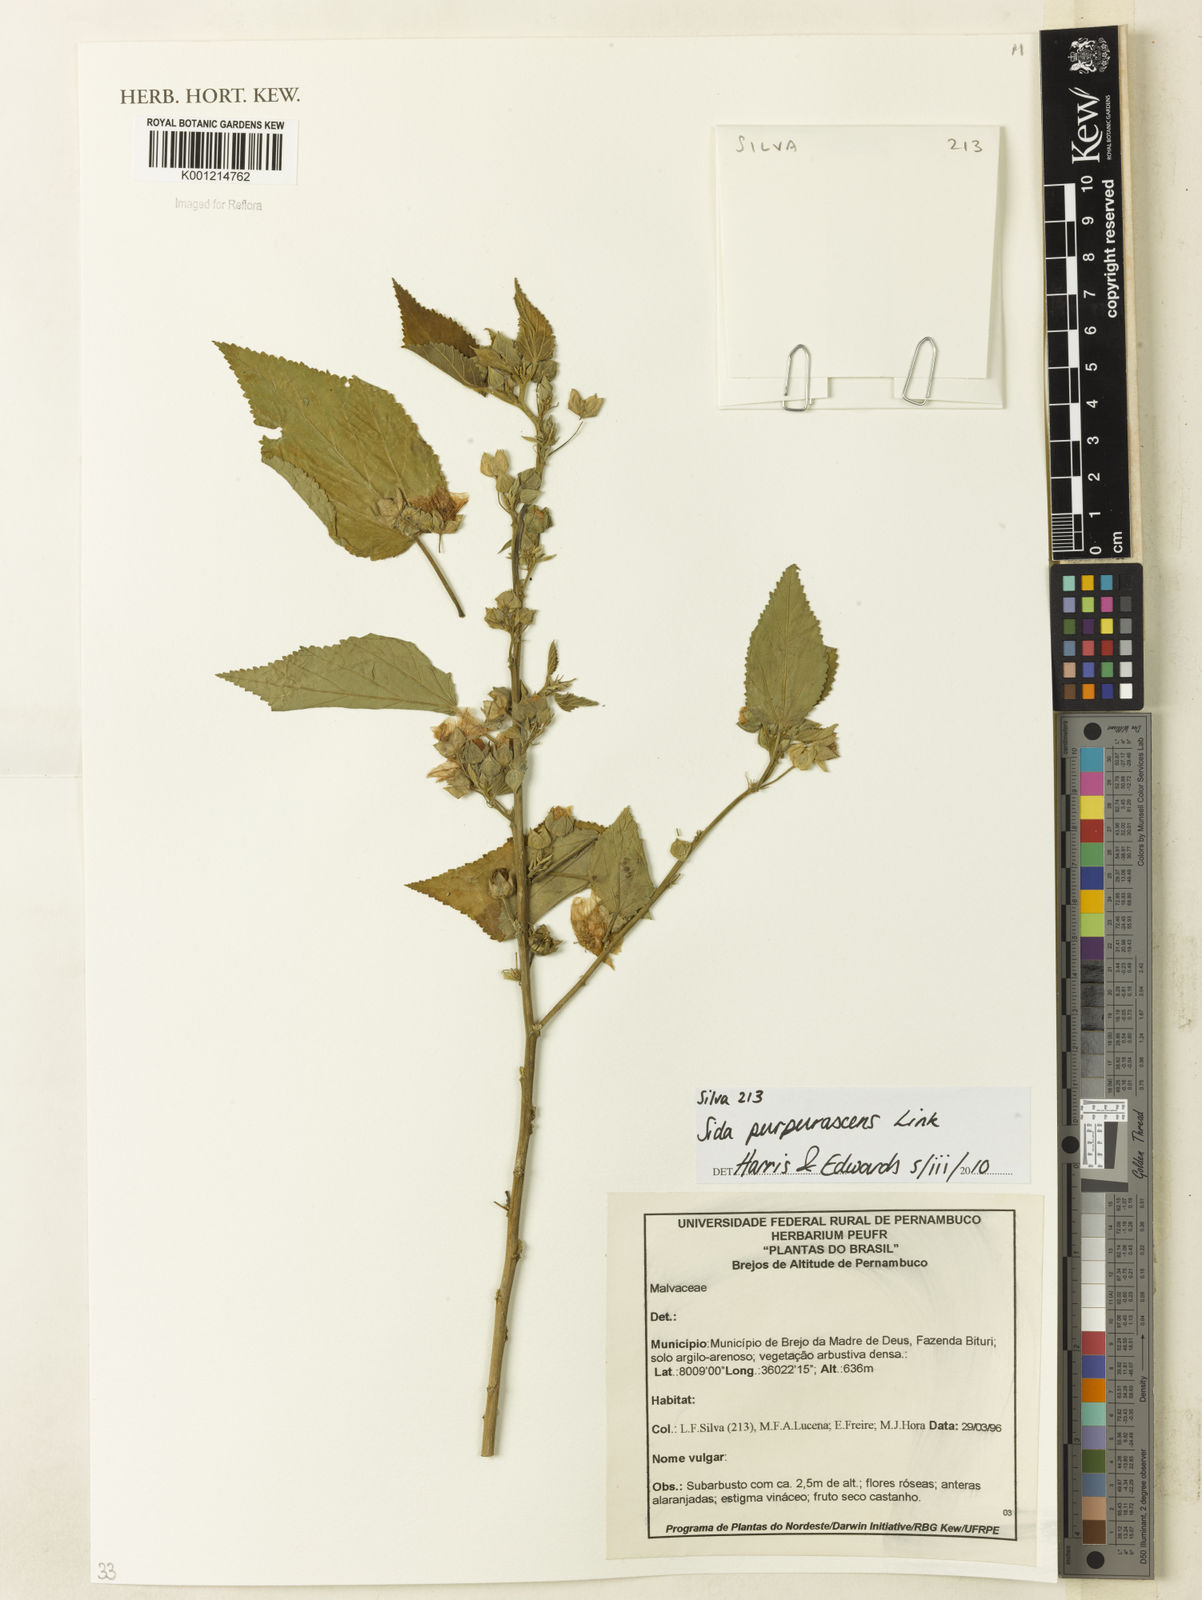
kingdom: Plantae
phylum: Tracheophyta
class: Magnoliopsida
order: Malvales
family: Malvaceae
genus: Sida
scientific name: Sida ulei
